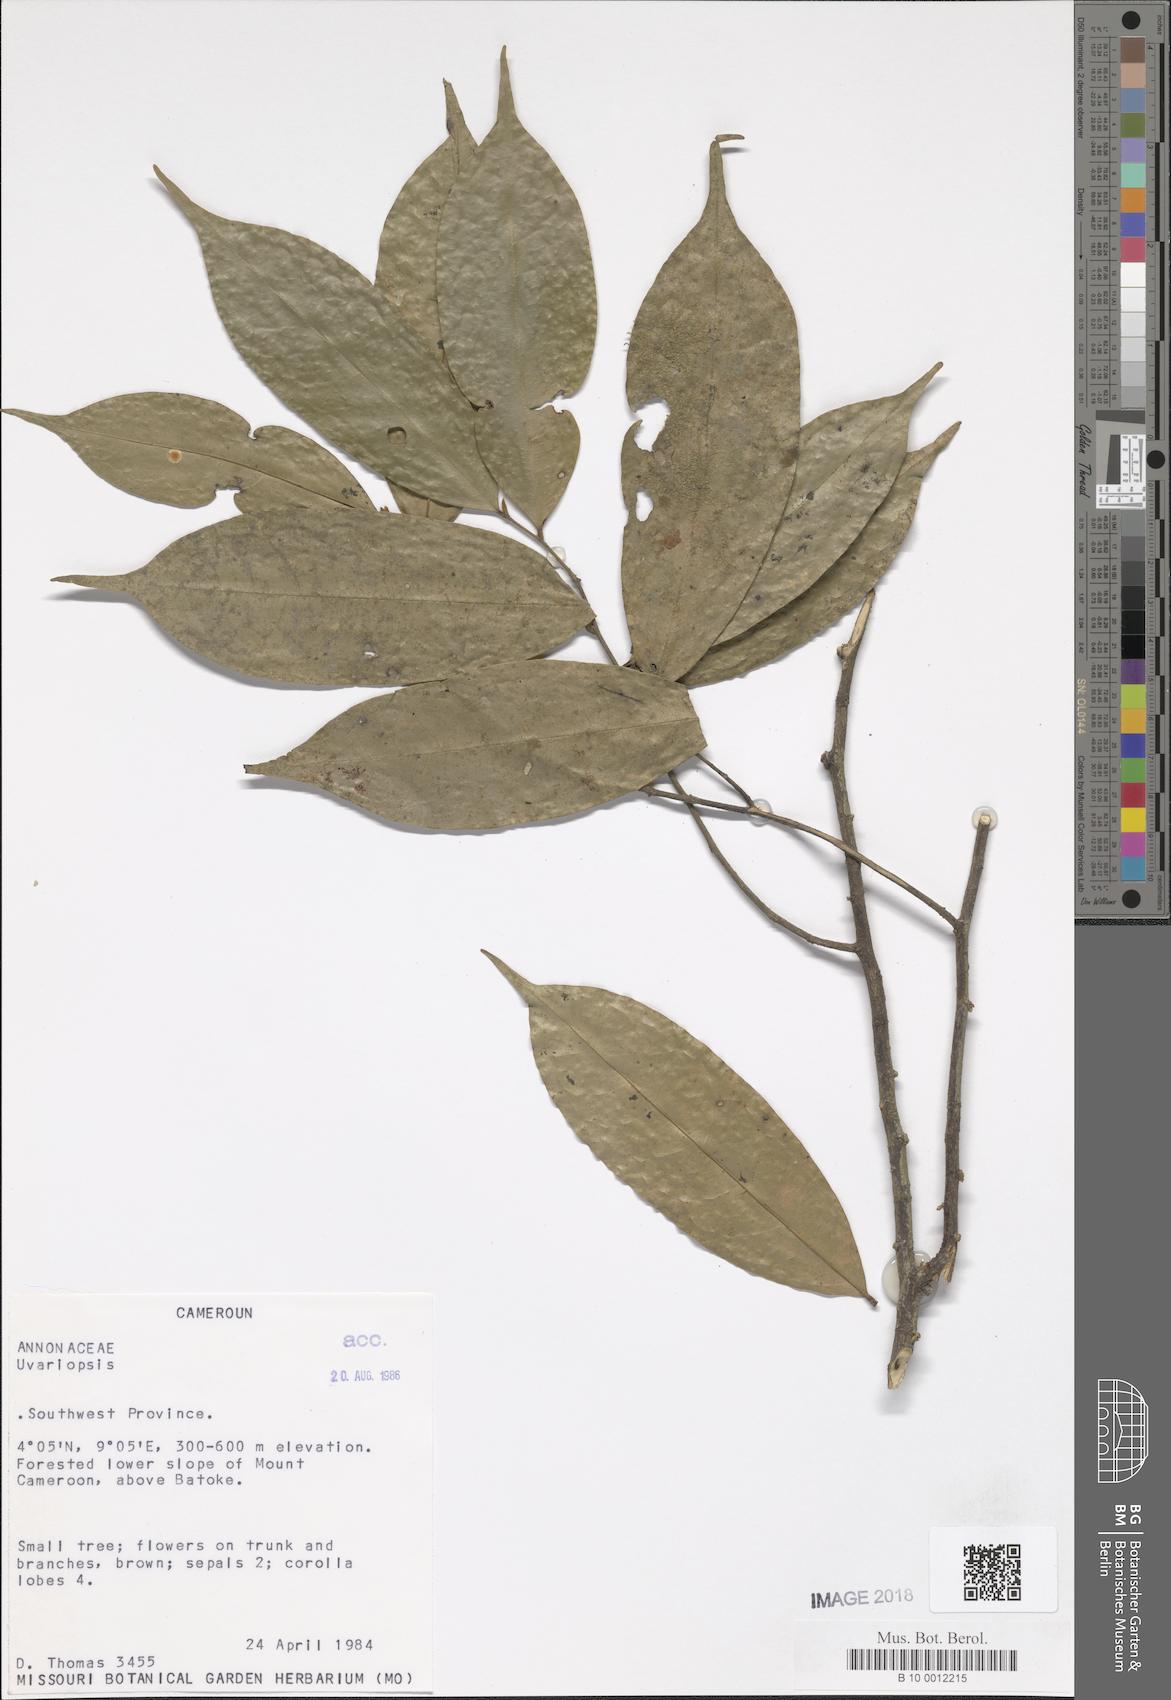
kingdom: Plantae
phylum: Tracheophyta
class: Magnoliopsida
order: Magnoliales
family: Annonaceae
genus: Uvariopsis
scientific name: Uvariopsis zenkeri
